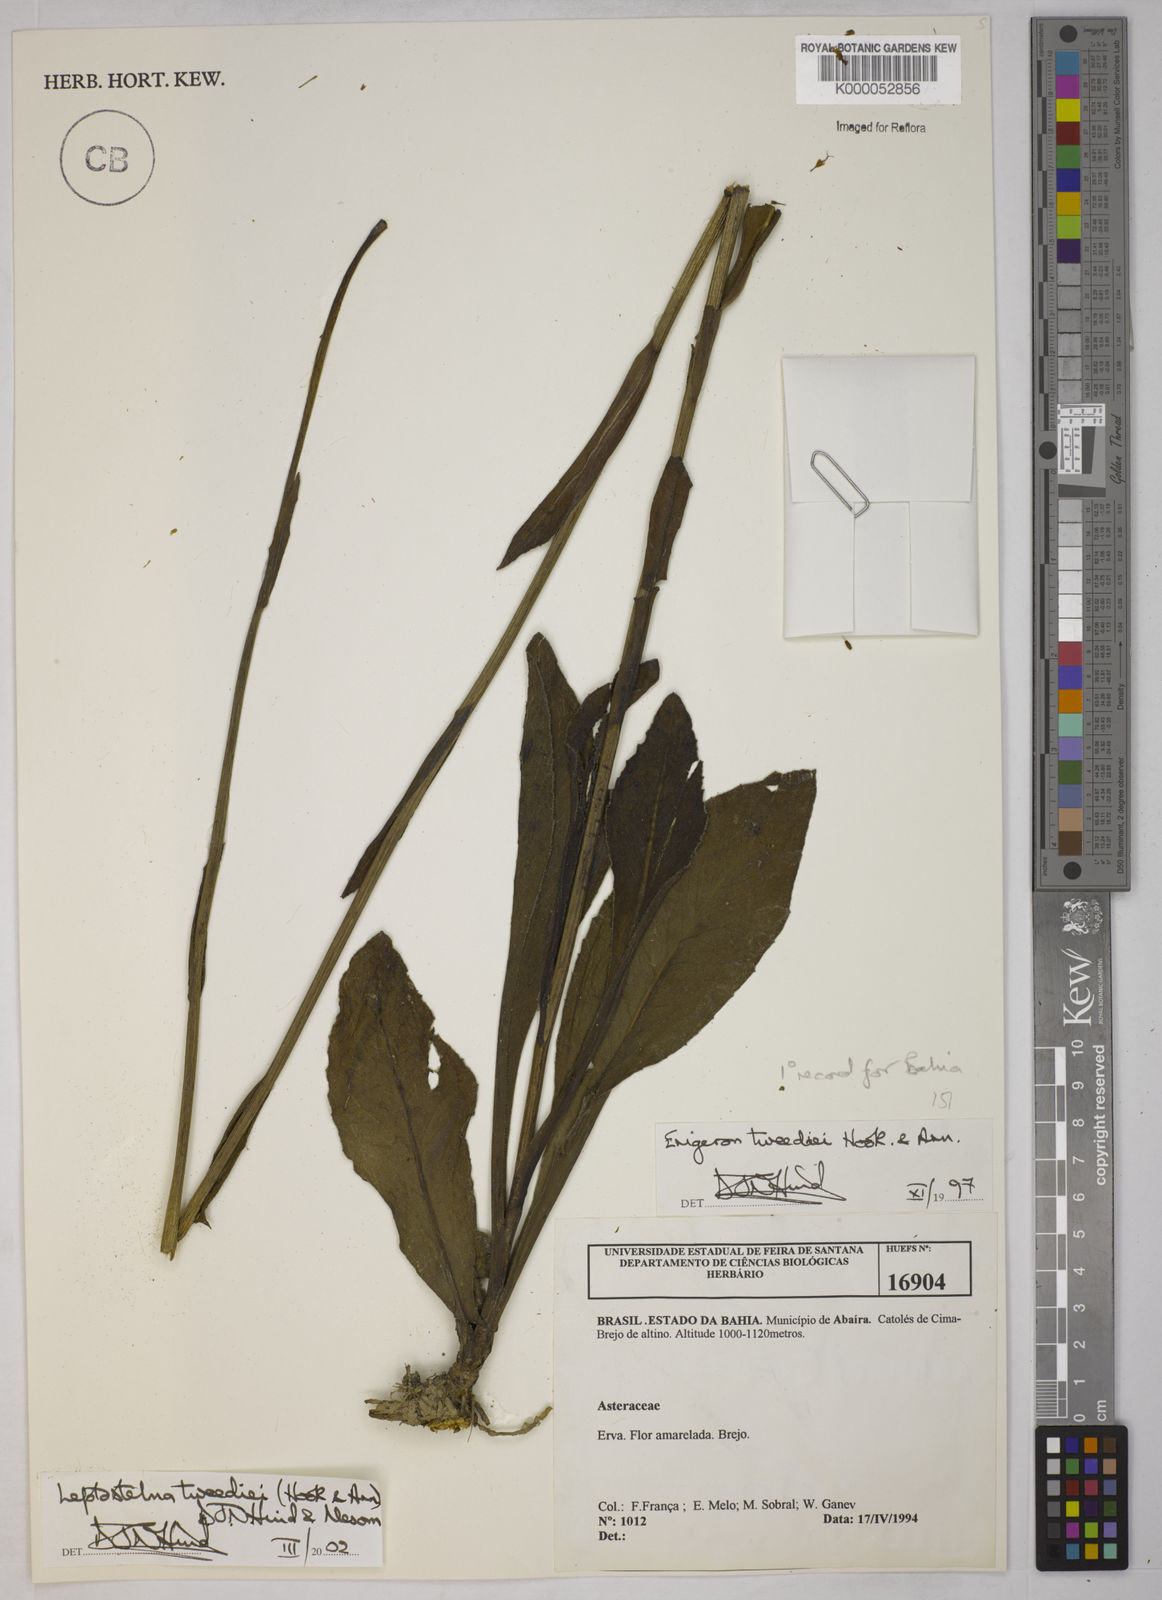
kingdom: Plantae
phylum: Tracheophyta
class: Magnoliopsida
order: Asterales
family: Asteraceae
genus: Leptostelma
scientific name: Leptostelma tweediei
